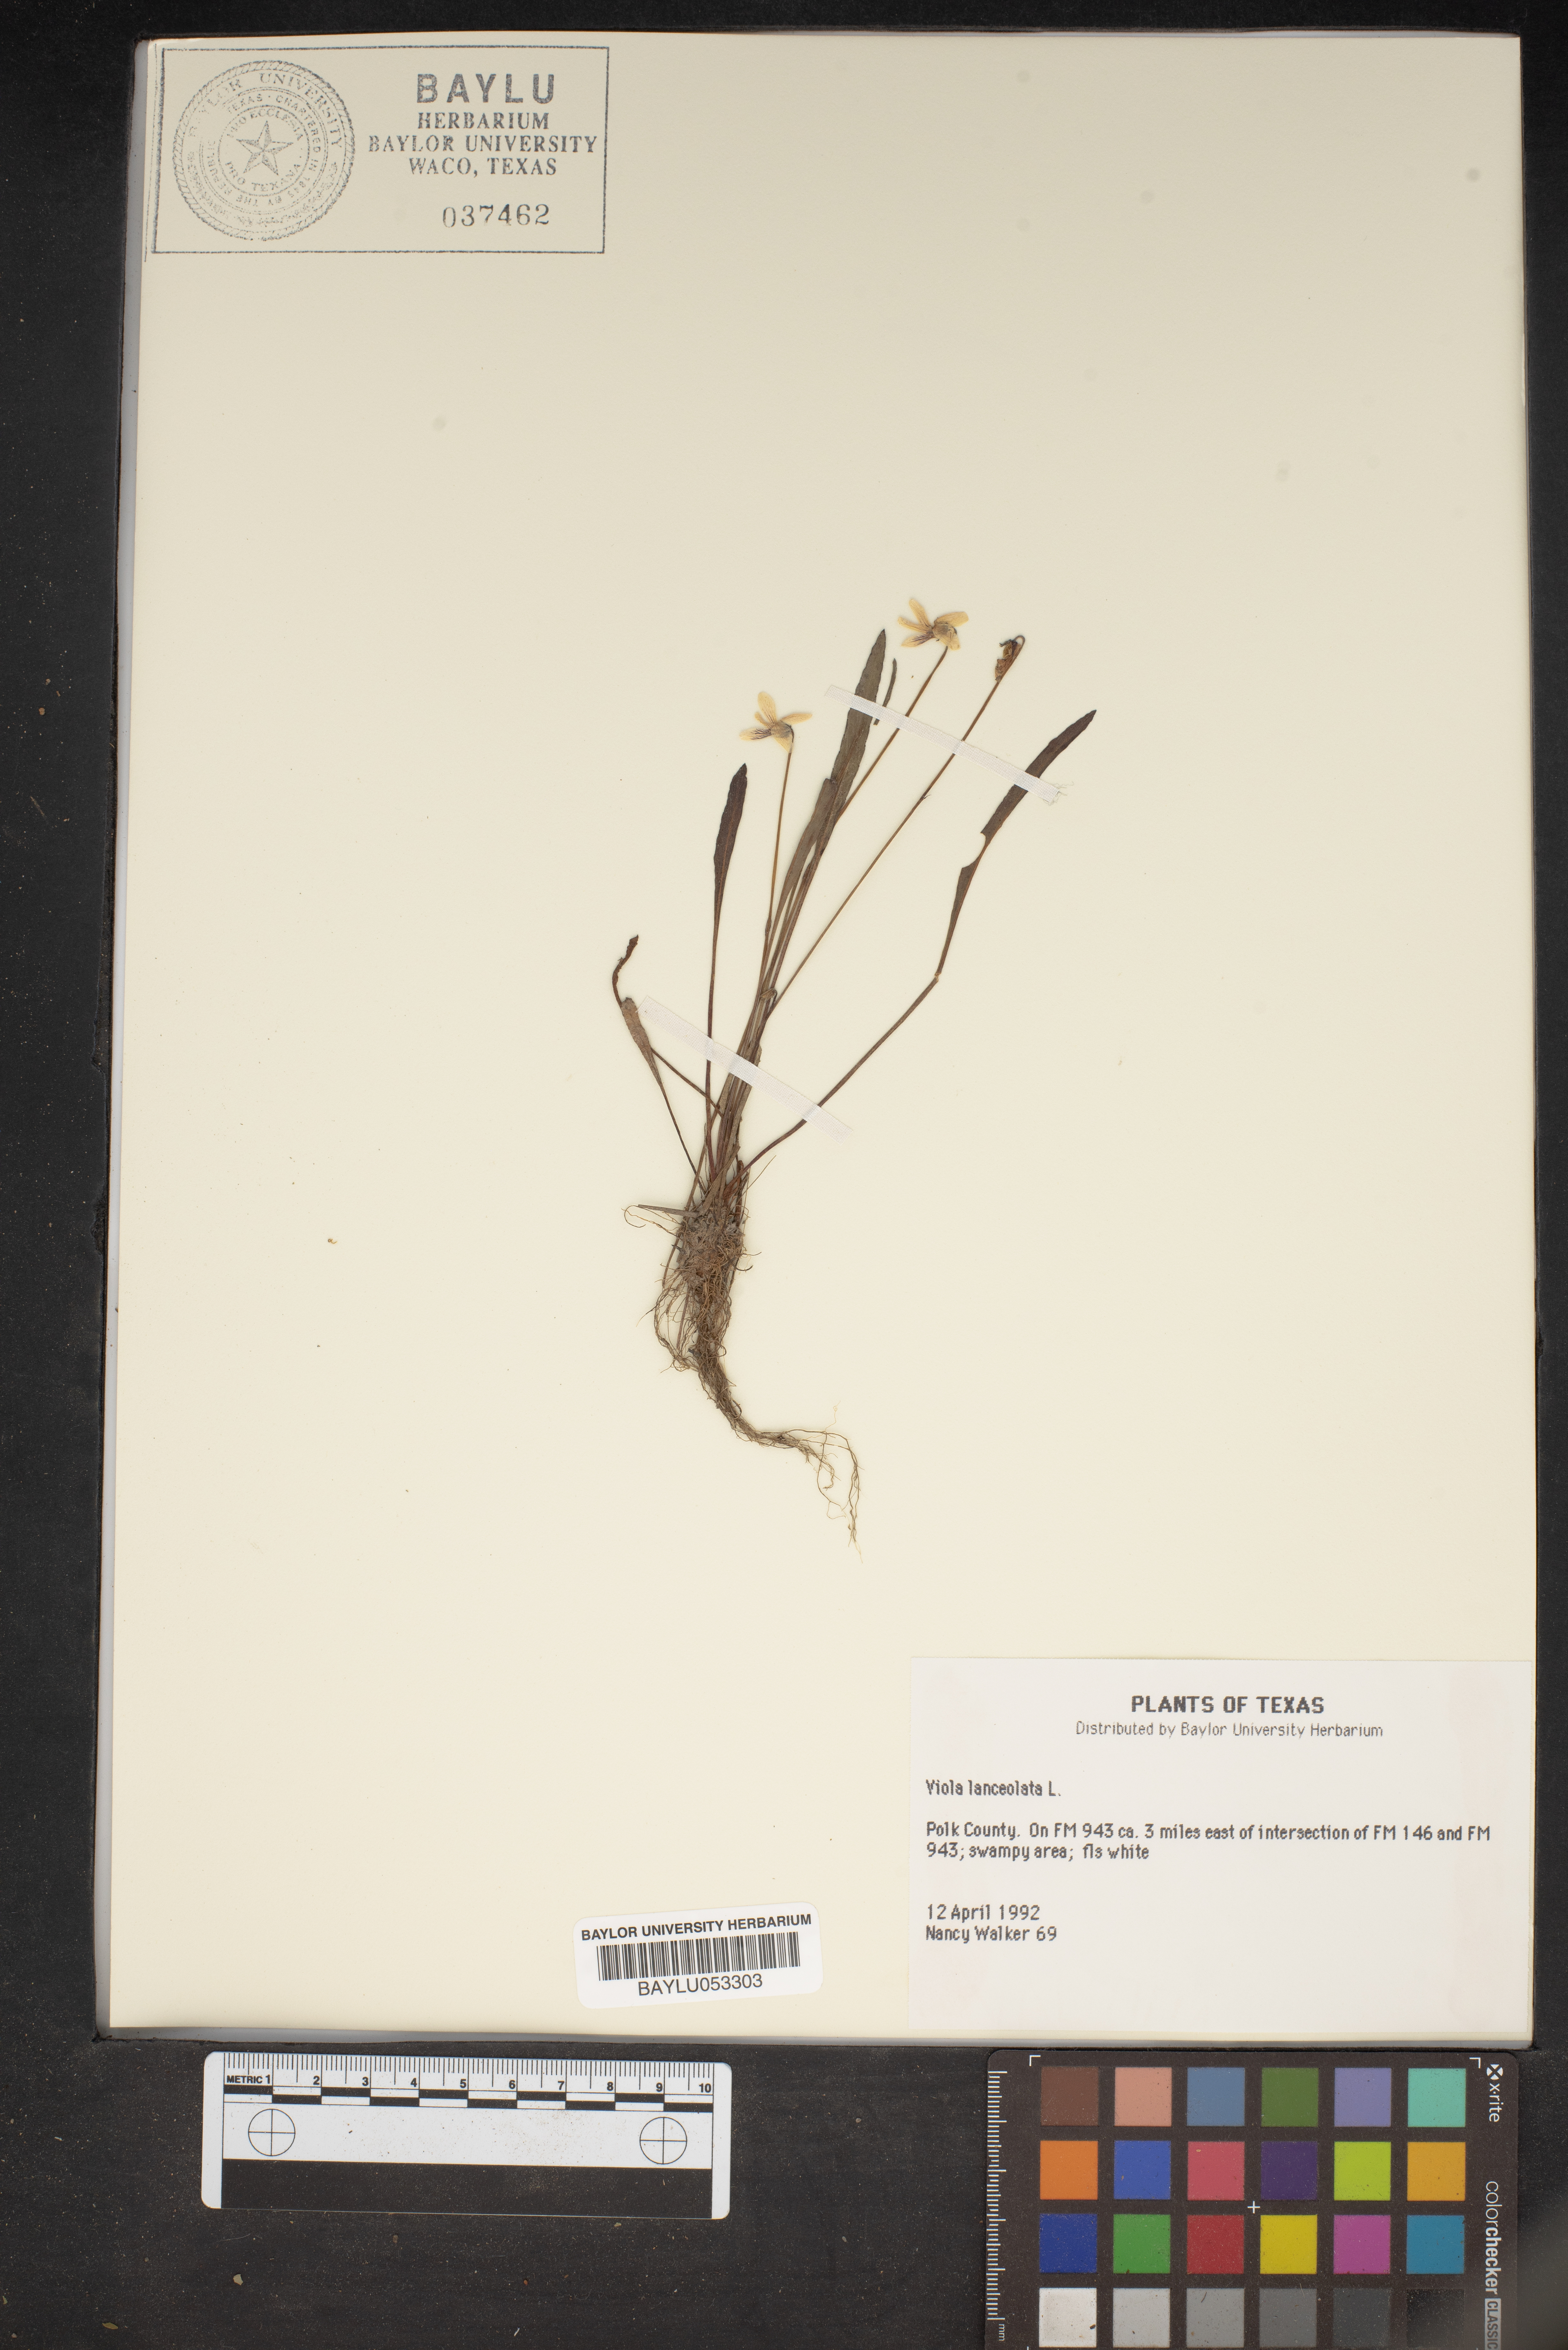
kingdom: Plantae
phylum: Tracheophyta
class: Magnoliopsida
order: Malpighiales
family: Violaceae
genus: Viola
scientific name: Viola lanceolata
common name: Bog white violet
